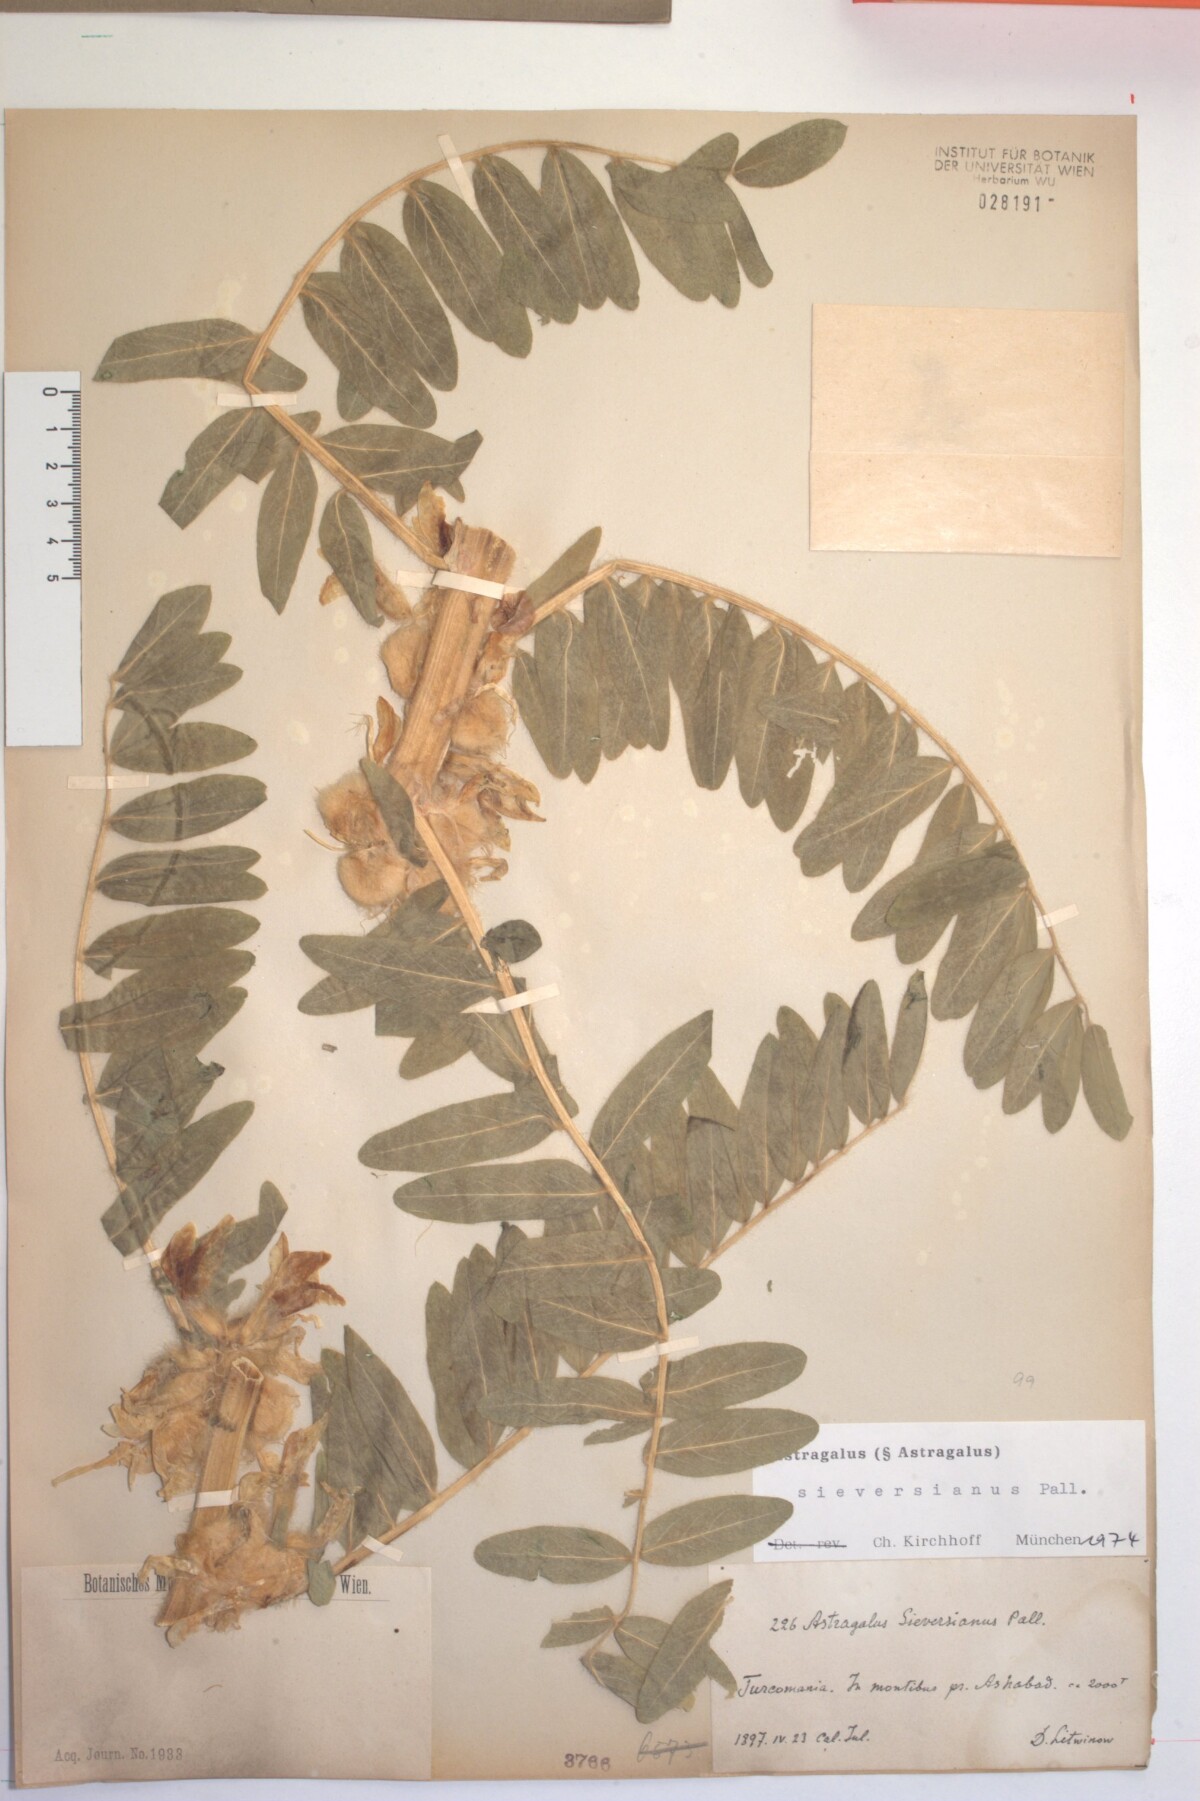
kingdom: Plantae
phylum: Tracheophyta
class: Magnoliopsida
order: Fabales
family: Fabaceae
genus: Astragalus
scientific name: Astragalus sieversianus
